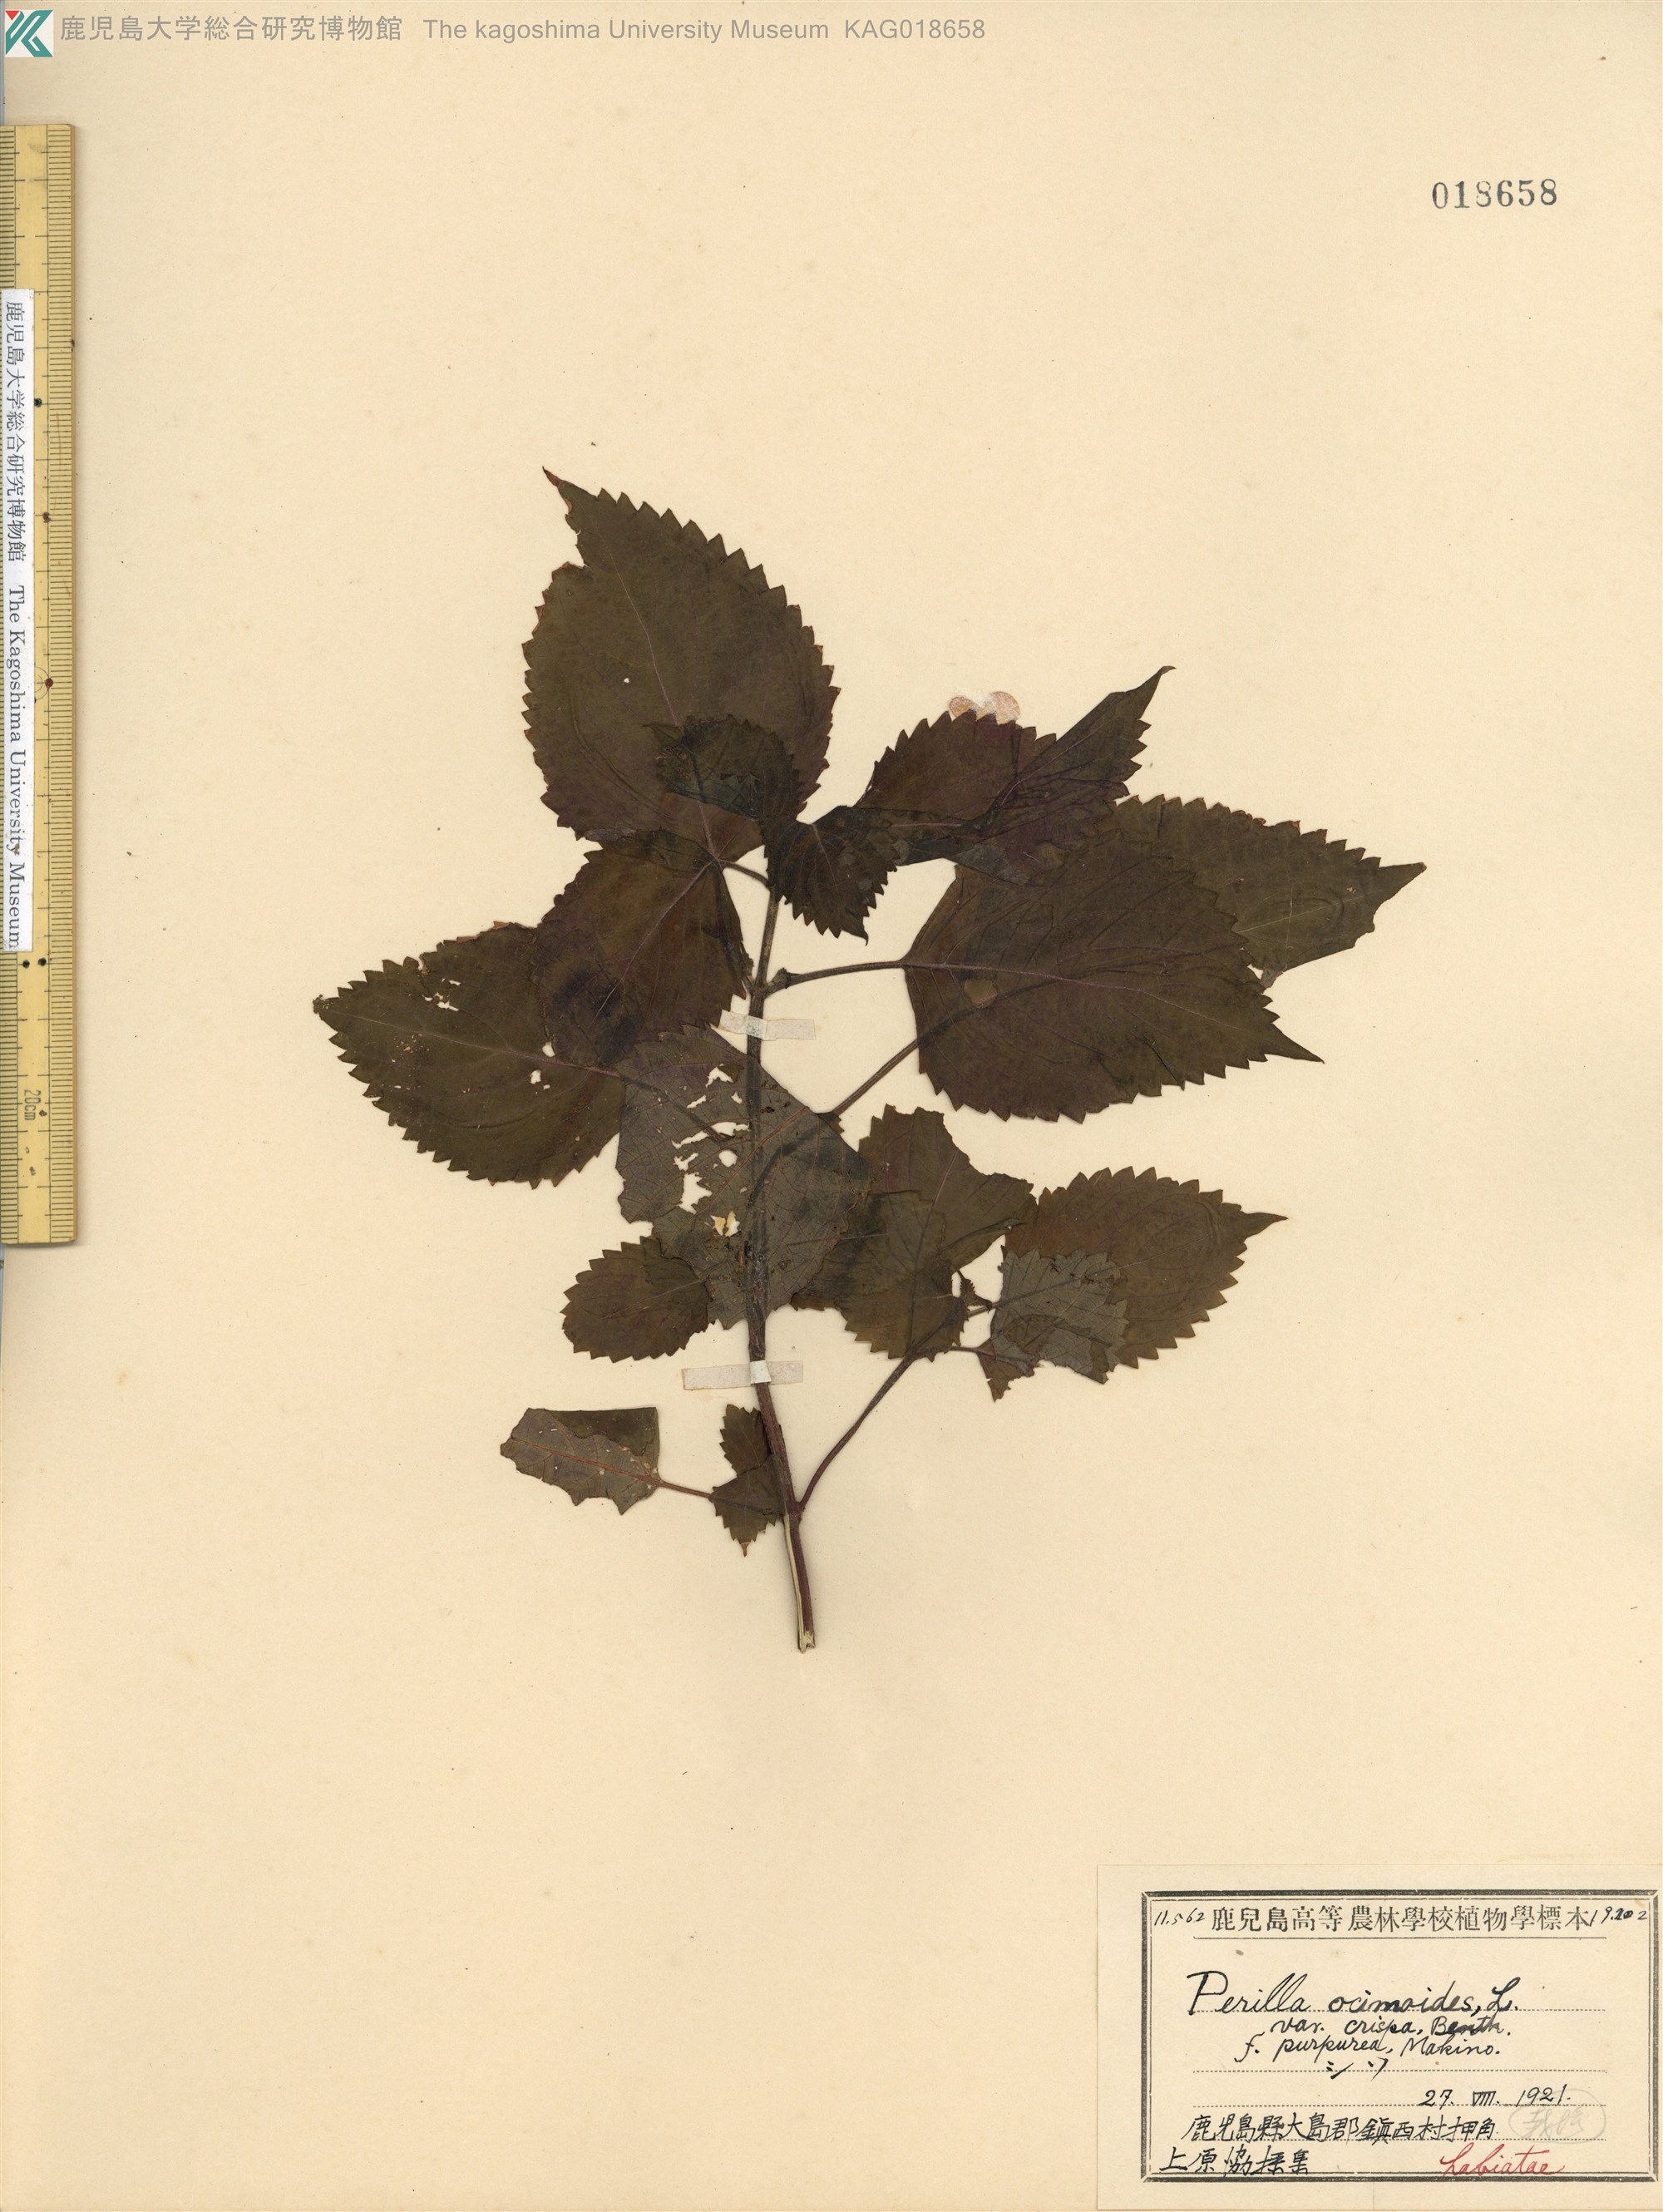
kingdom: Plantae
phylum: Tracheophyta
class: Magnoliopsida
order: Lamiales
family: Lamiaceae
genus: Perilla
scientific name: Perilla frutescens
